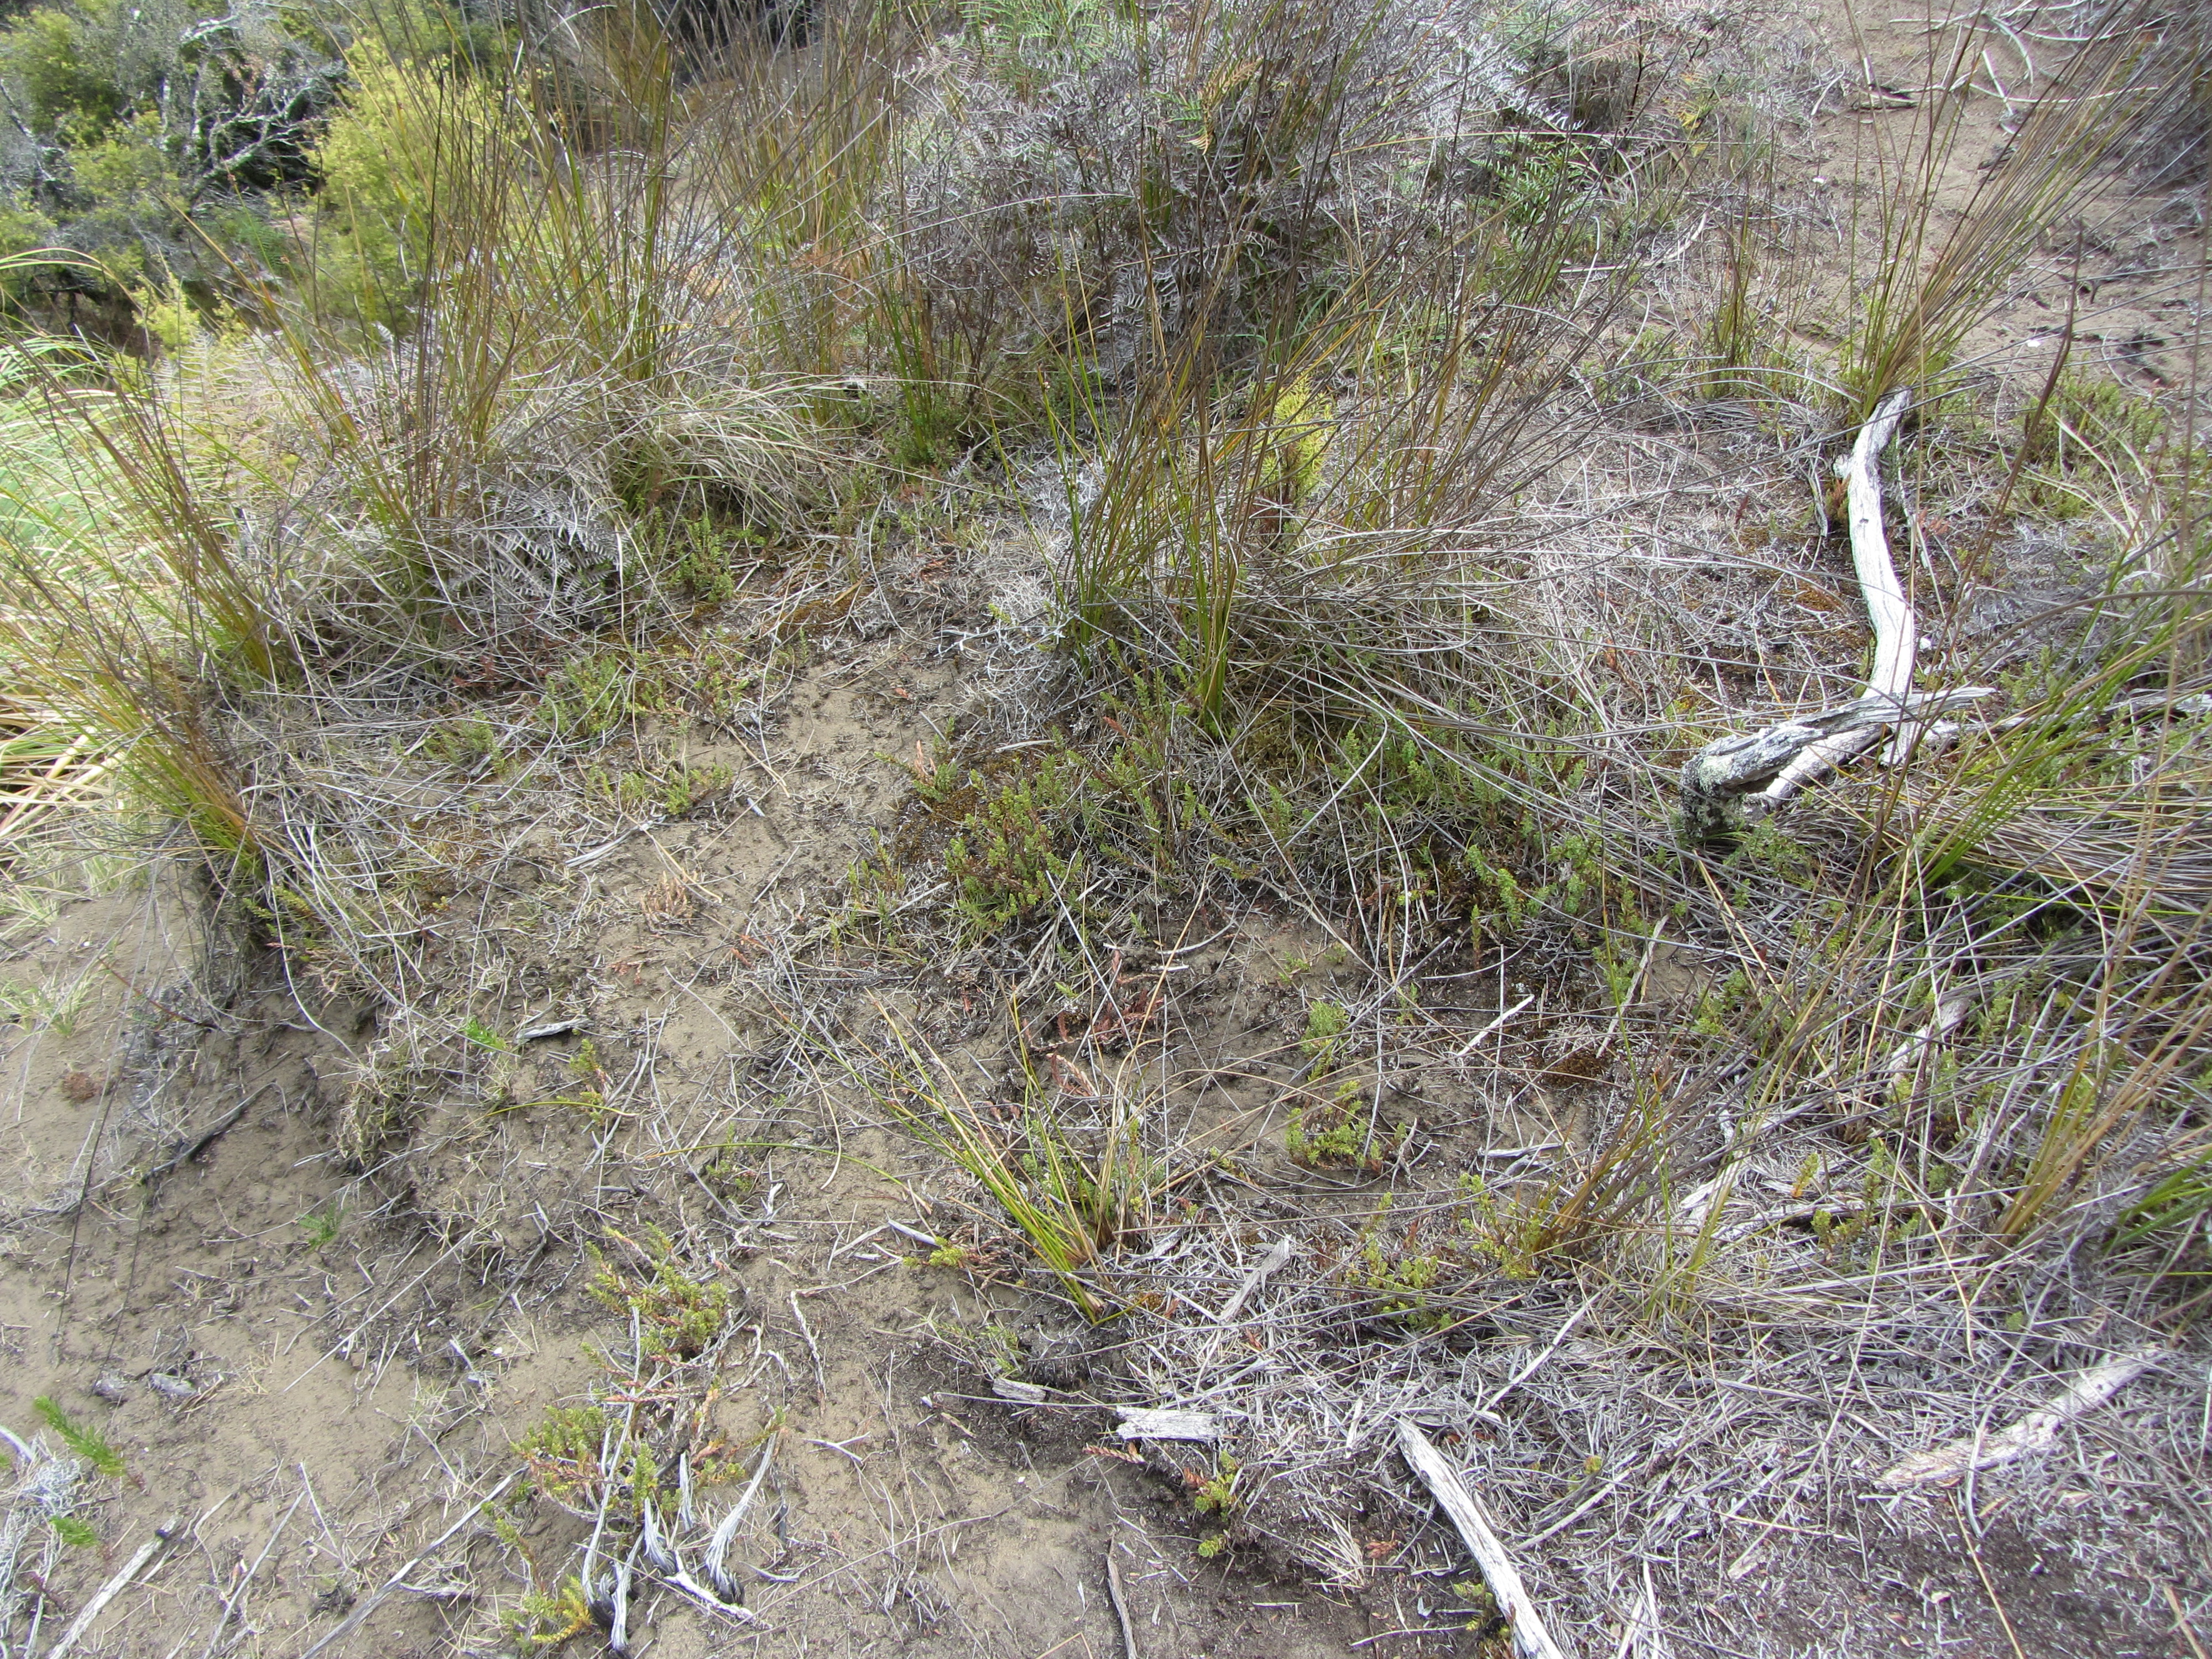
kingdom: Plantae
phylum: Tracheophyta
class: Magnoliopsida
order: Ericales
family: Ericaceae
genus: Styphelia
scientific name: Styphelia nesophila
